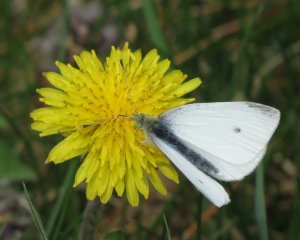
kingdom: Animalia
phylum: Arthropoda
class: Insecta
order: Lepidoptera
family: Pieridae
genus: Pieris
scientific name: Pieris rapae
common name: Cabbage White
